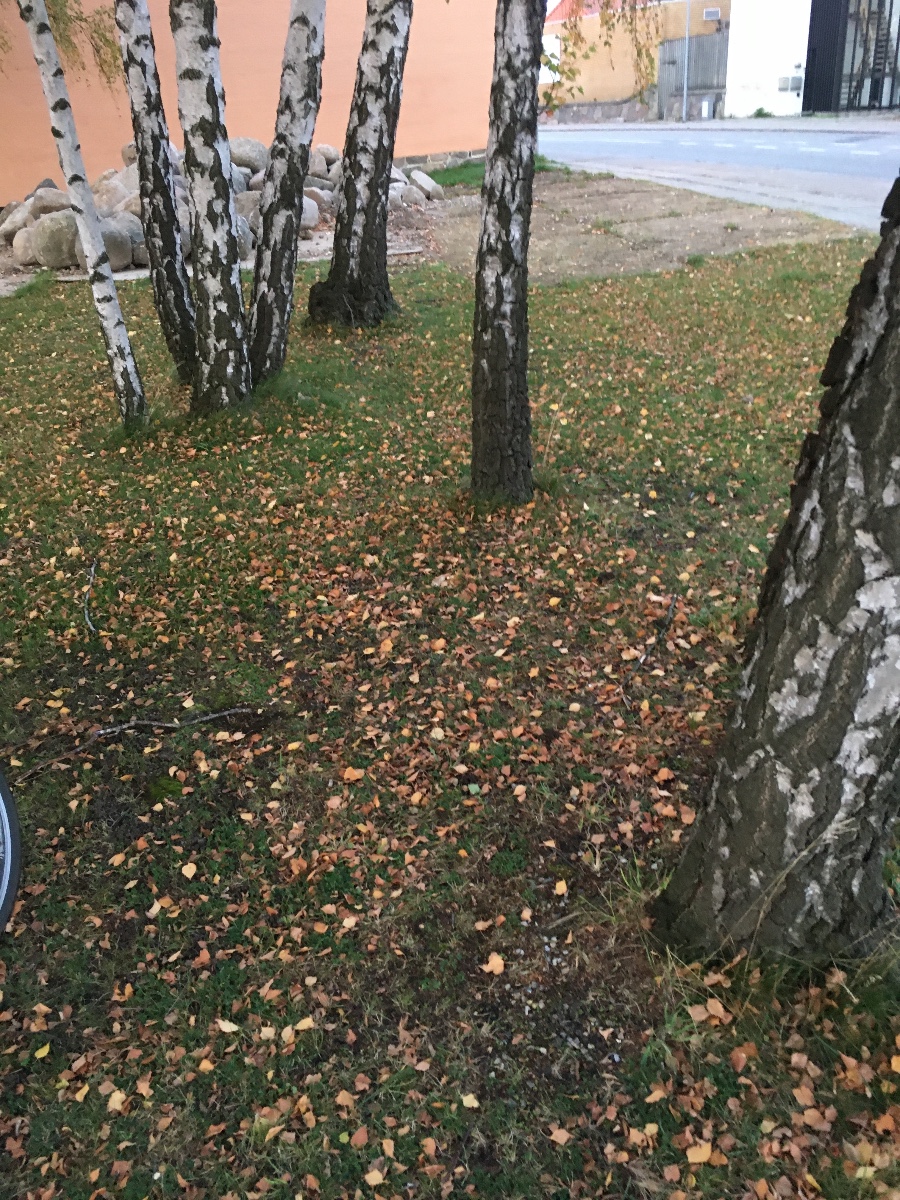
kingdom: Fungi
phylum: Basidiomycota
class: Agaricomycetes
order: Russulales
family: Russulaceae
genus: Russula
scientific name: Russula depallens
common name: falmende skørhat
